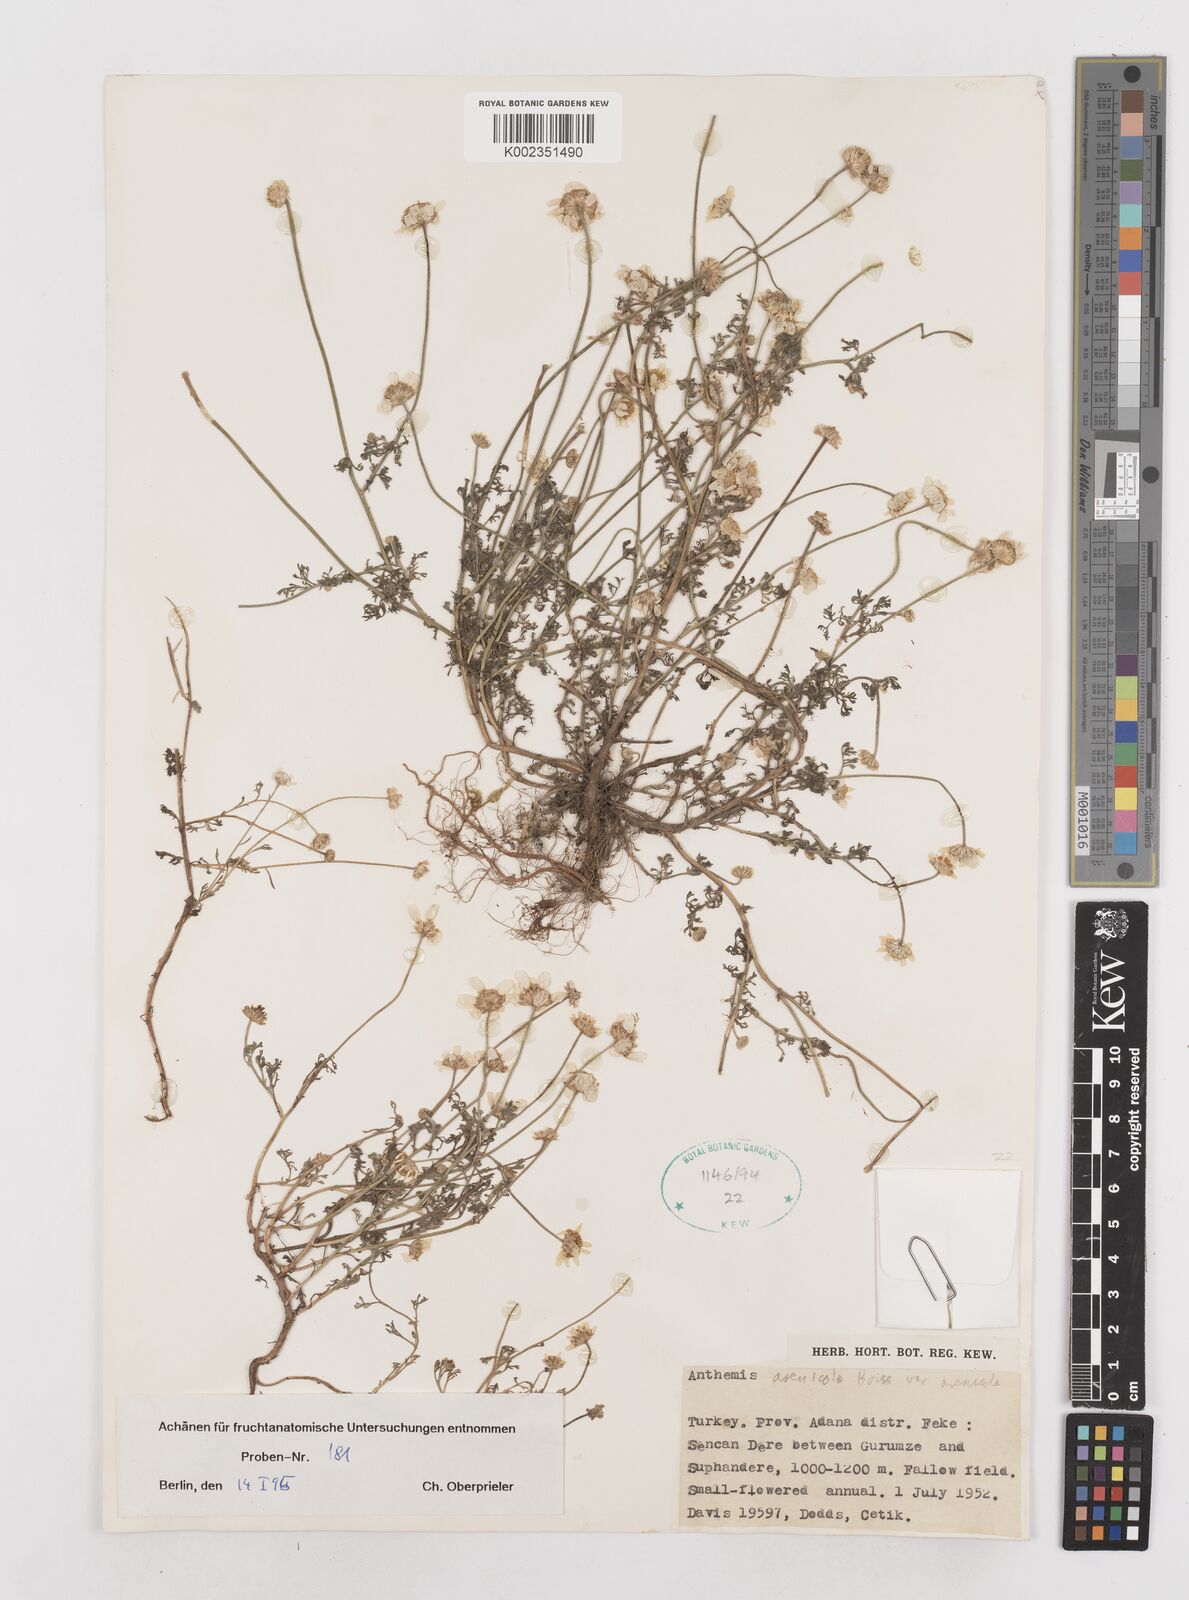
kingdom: Plantae
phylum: Tracheophyta
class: Magnoliopsida
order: Asterales
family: Asteraceae
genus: Anthemis
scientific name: Anthemis auriculata
